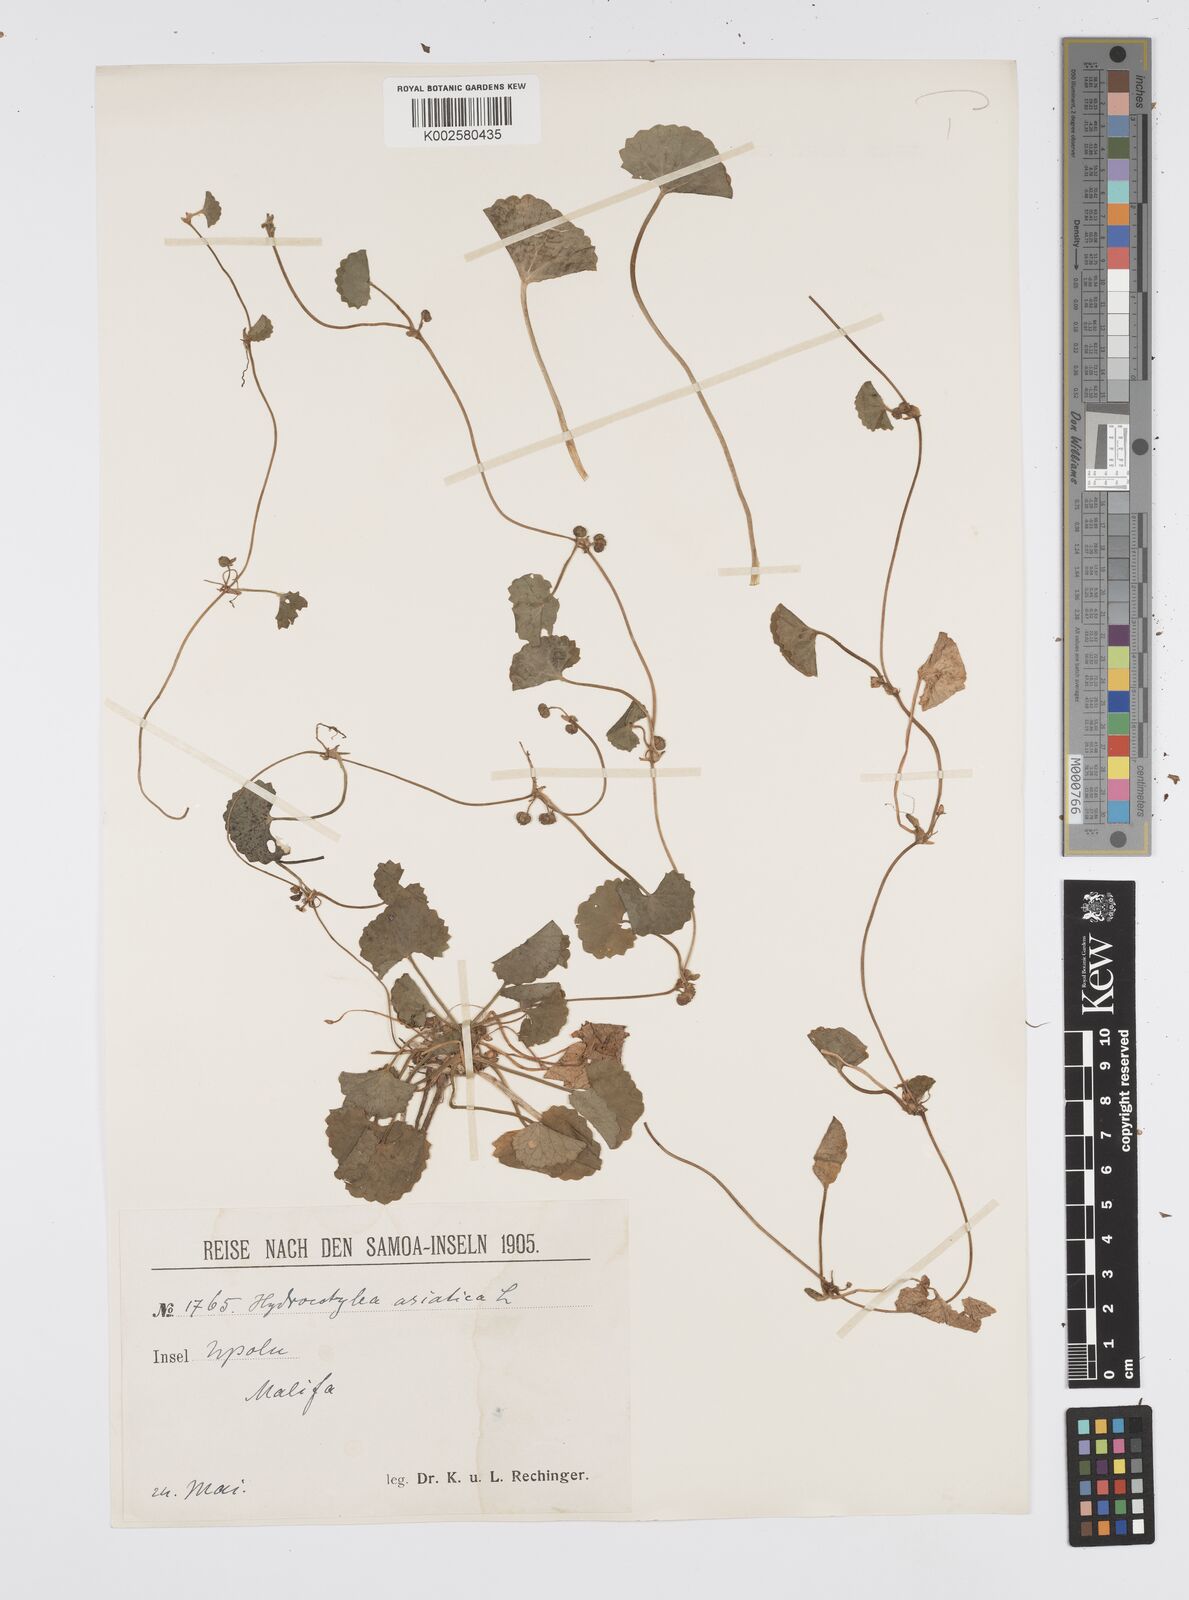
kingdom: Plantae
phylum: Tracheophyta
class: Magnoliopsida
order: Apiales
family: Apiaceae
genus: Centella
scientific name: Centella asiatica
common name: Spadeleaf
